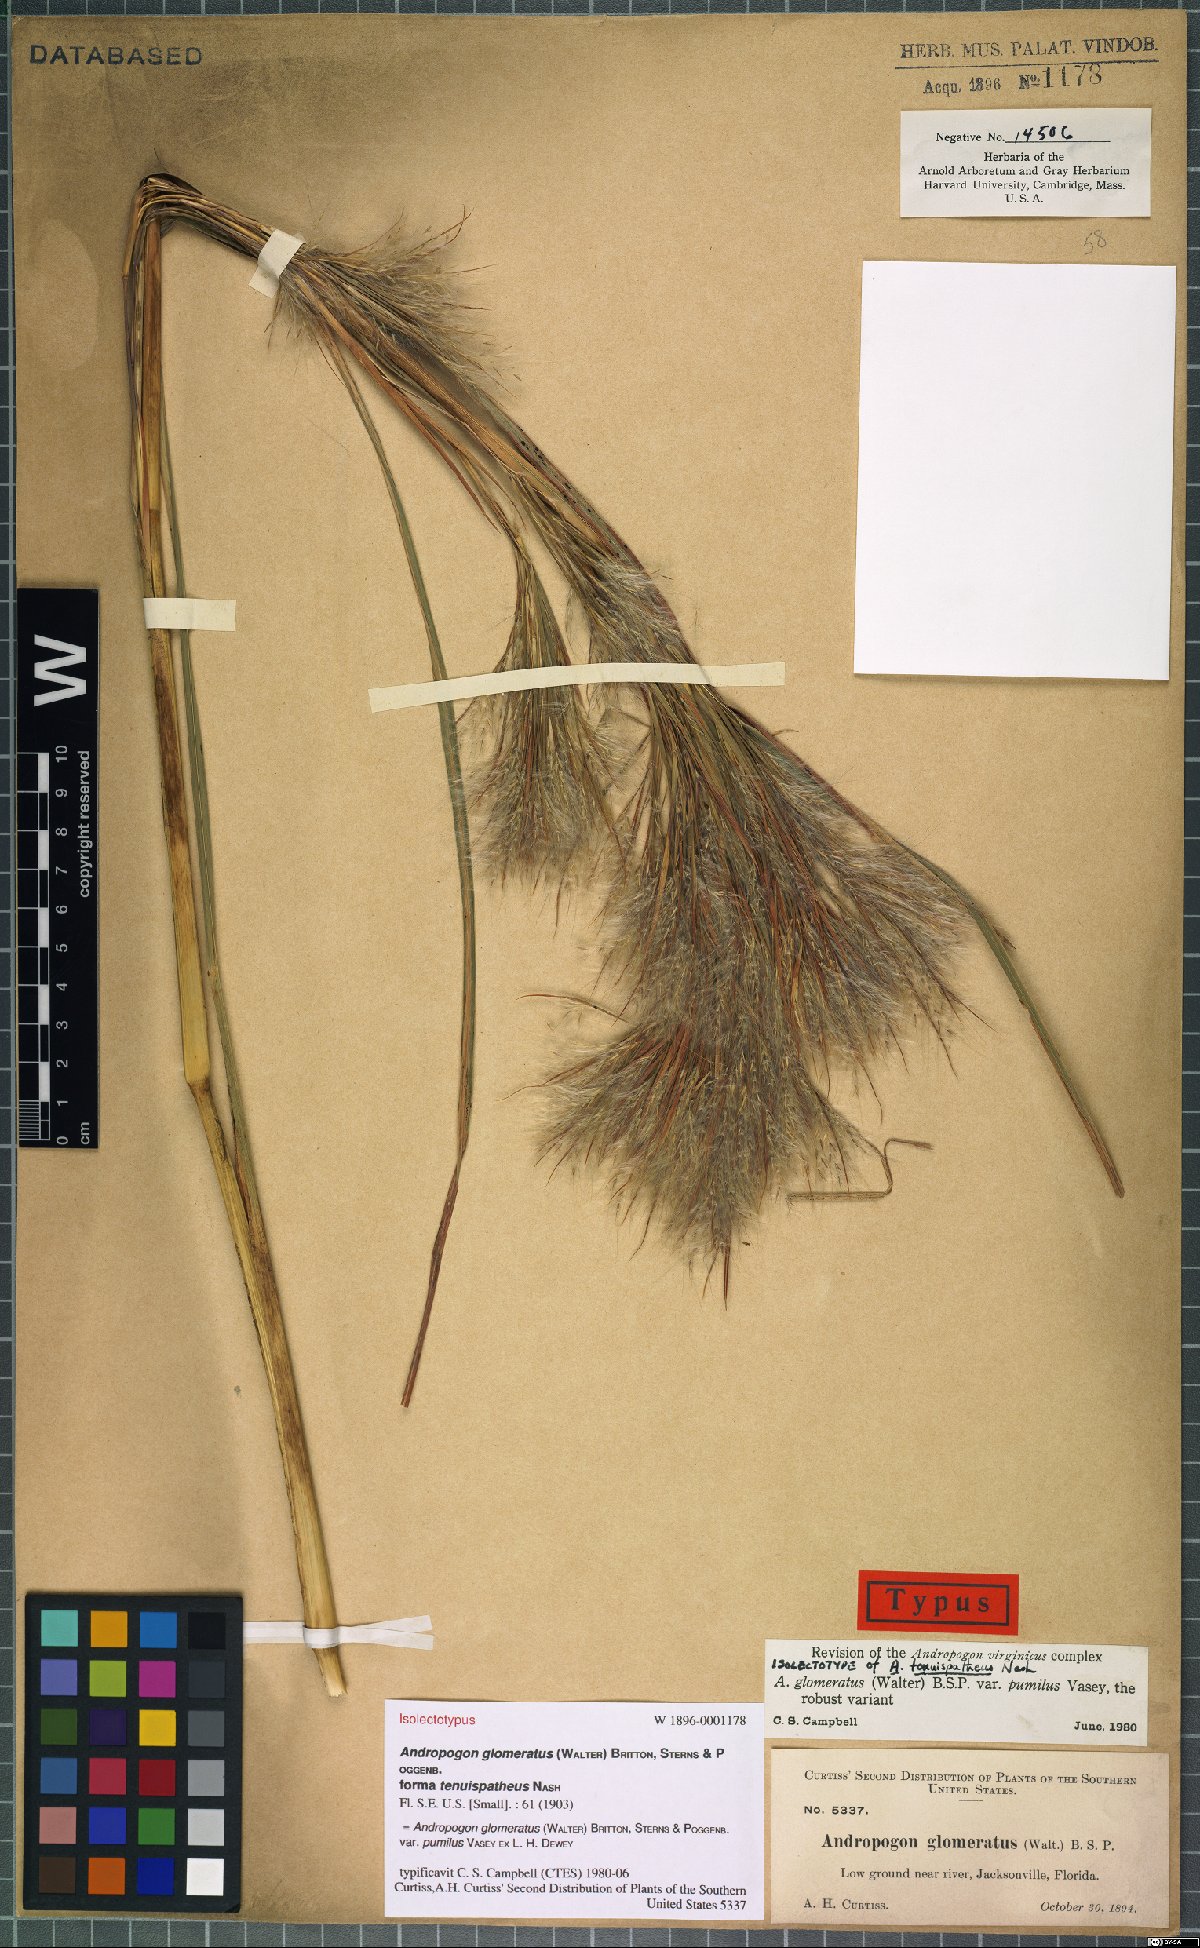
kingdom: Plantae
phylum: Tracheophyta
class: Liliopsida
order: Poales
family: Poaceae
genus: Andropogon
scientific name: Andropogon tenuispatheus
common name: Bushy bluestem
